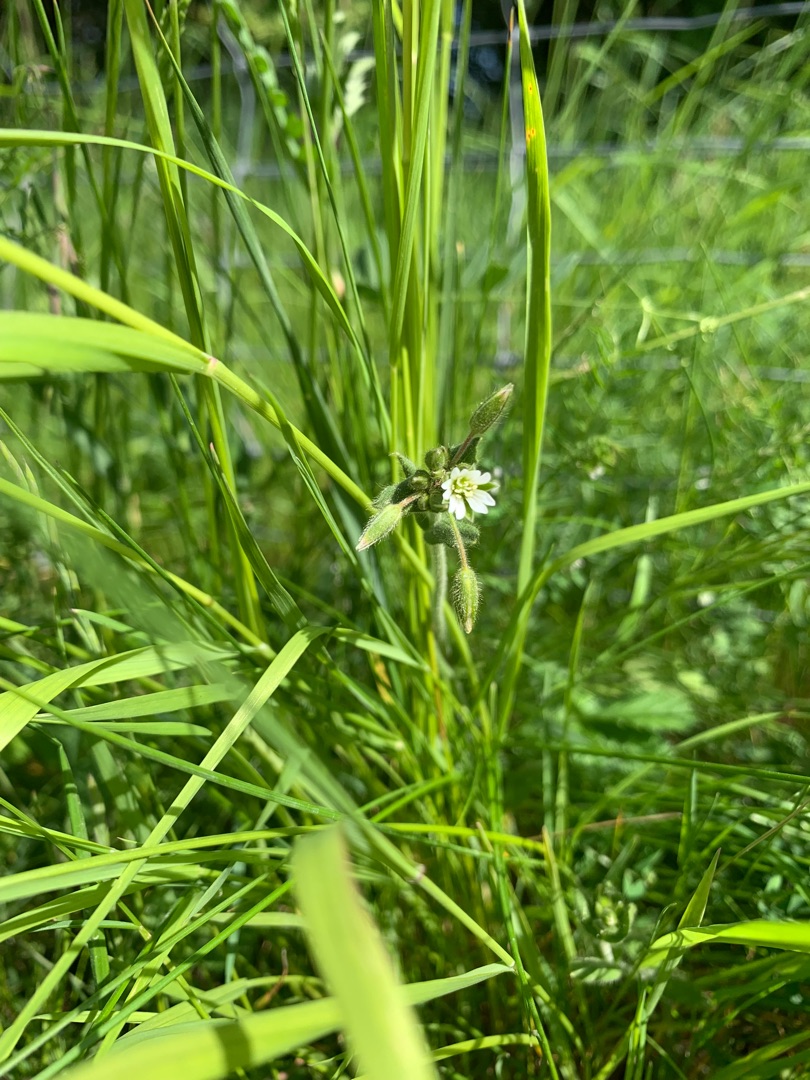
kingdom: Plantae
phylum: Tracheophyta
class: Magnoliopsida
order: Caryophyllales
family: Caryophyllaceae
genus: Cerastium
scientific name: Cerastium fontanum
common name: Almindelig hønsetarm
